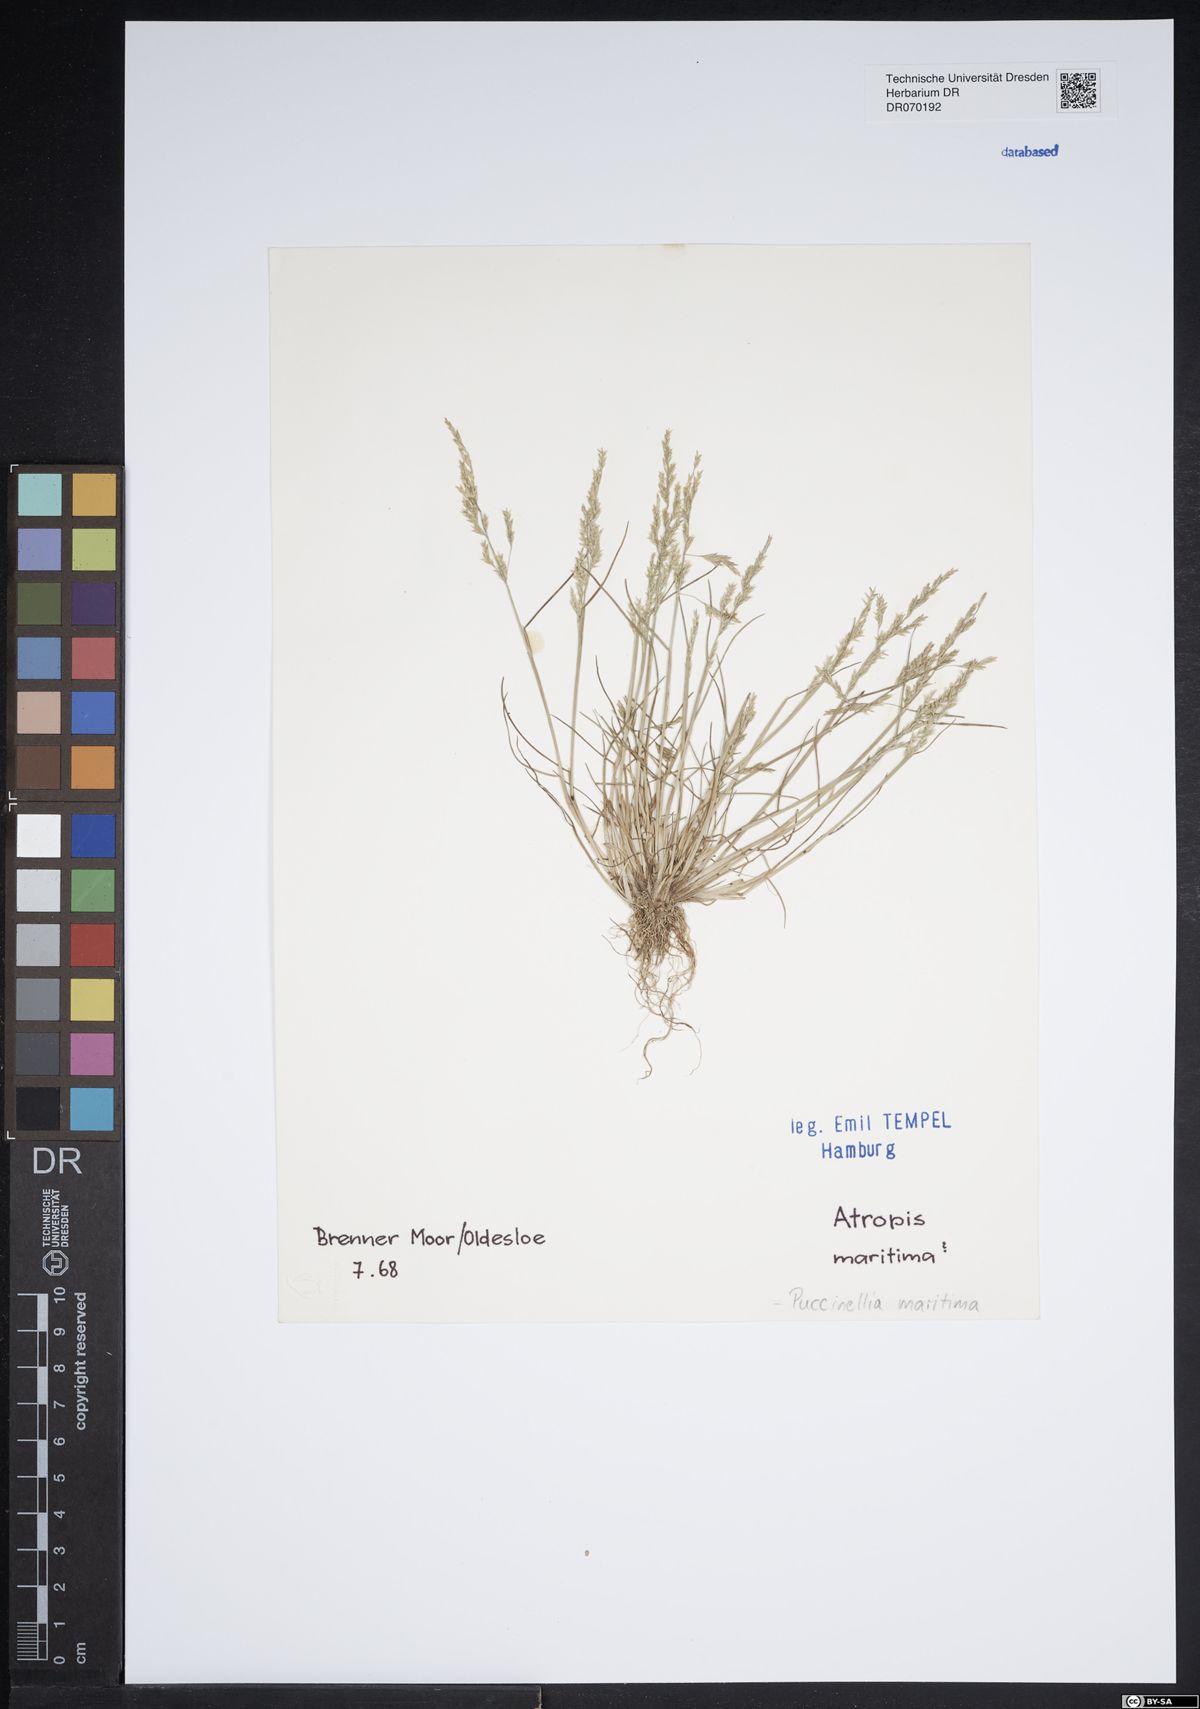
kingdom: Plantae
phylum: Tracheophyta
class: Liliopsida
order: Poales
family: Poaceae
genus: Puccinellia
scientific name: Puccinellia maritima
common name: Common saltmarsh grass
